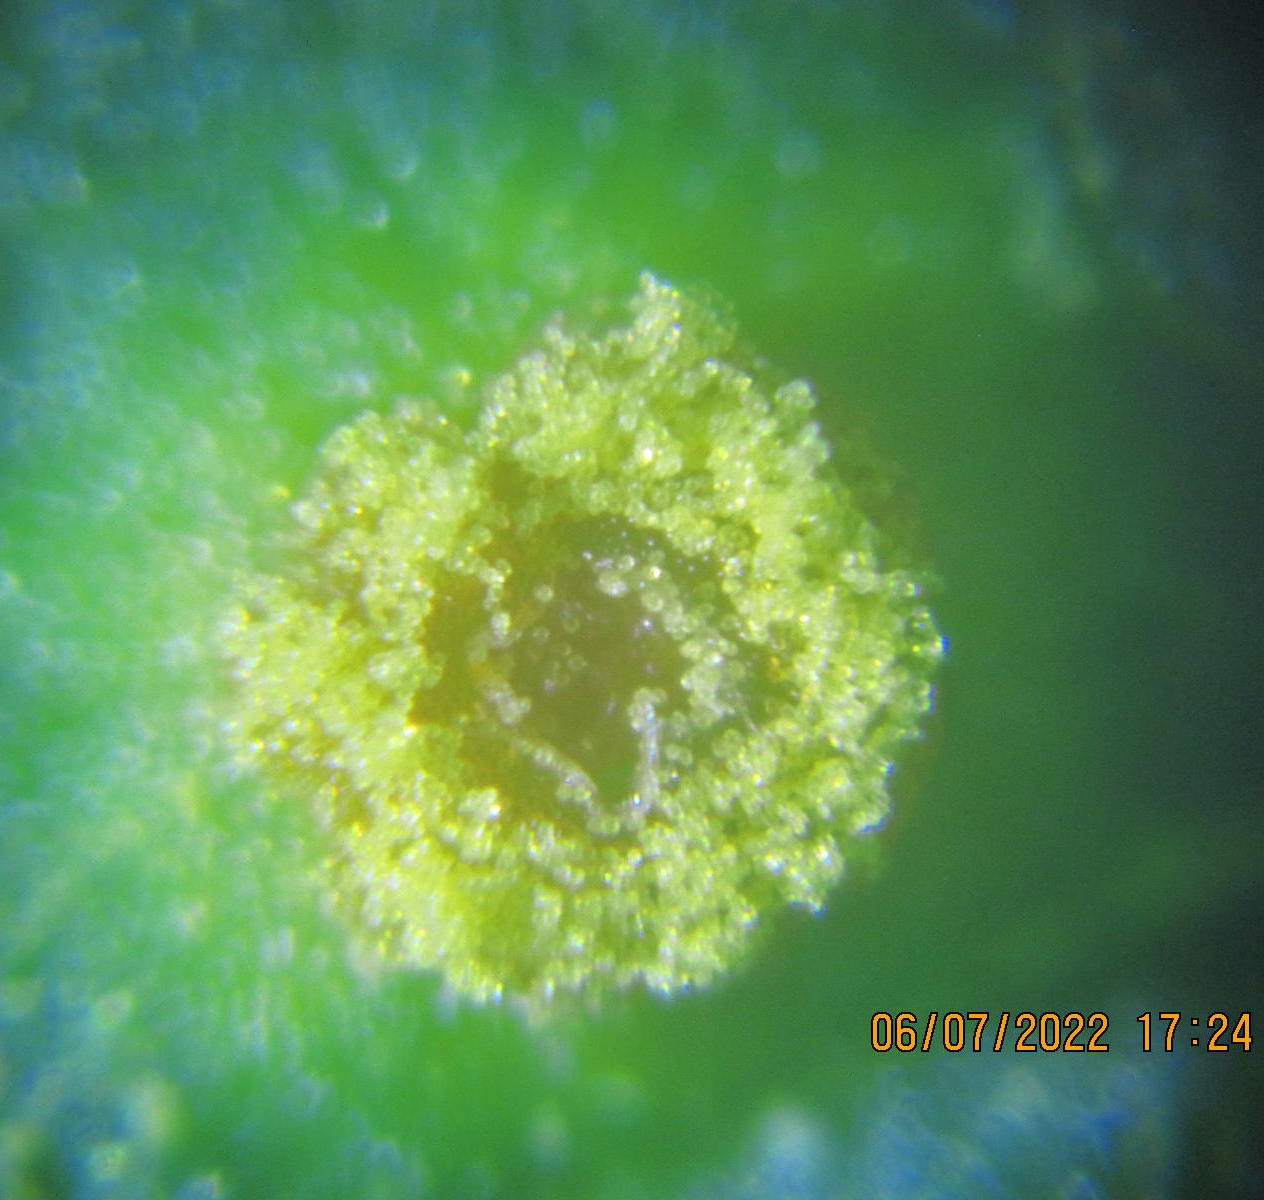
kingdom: Fungi
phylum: Basidiomycota
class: Pucciniomycetes
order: Pucciniales
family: Phragmidiaceae
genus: Phragmidium
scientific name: Phragmidium rubi-idaei
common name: hindbær-flercellerust
